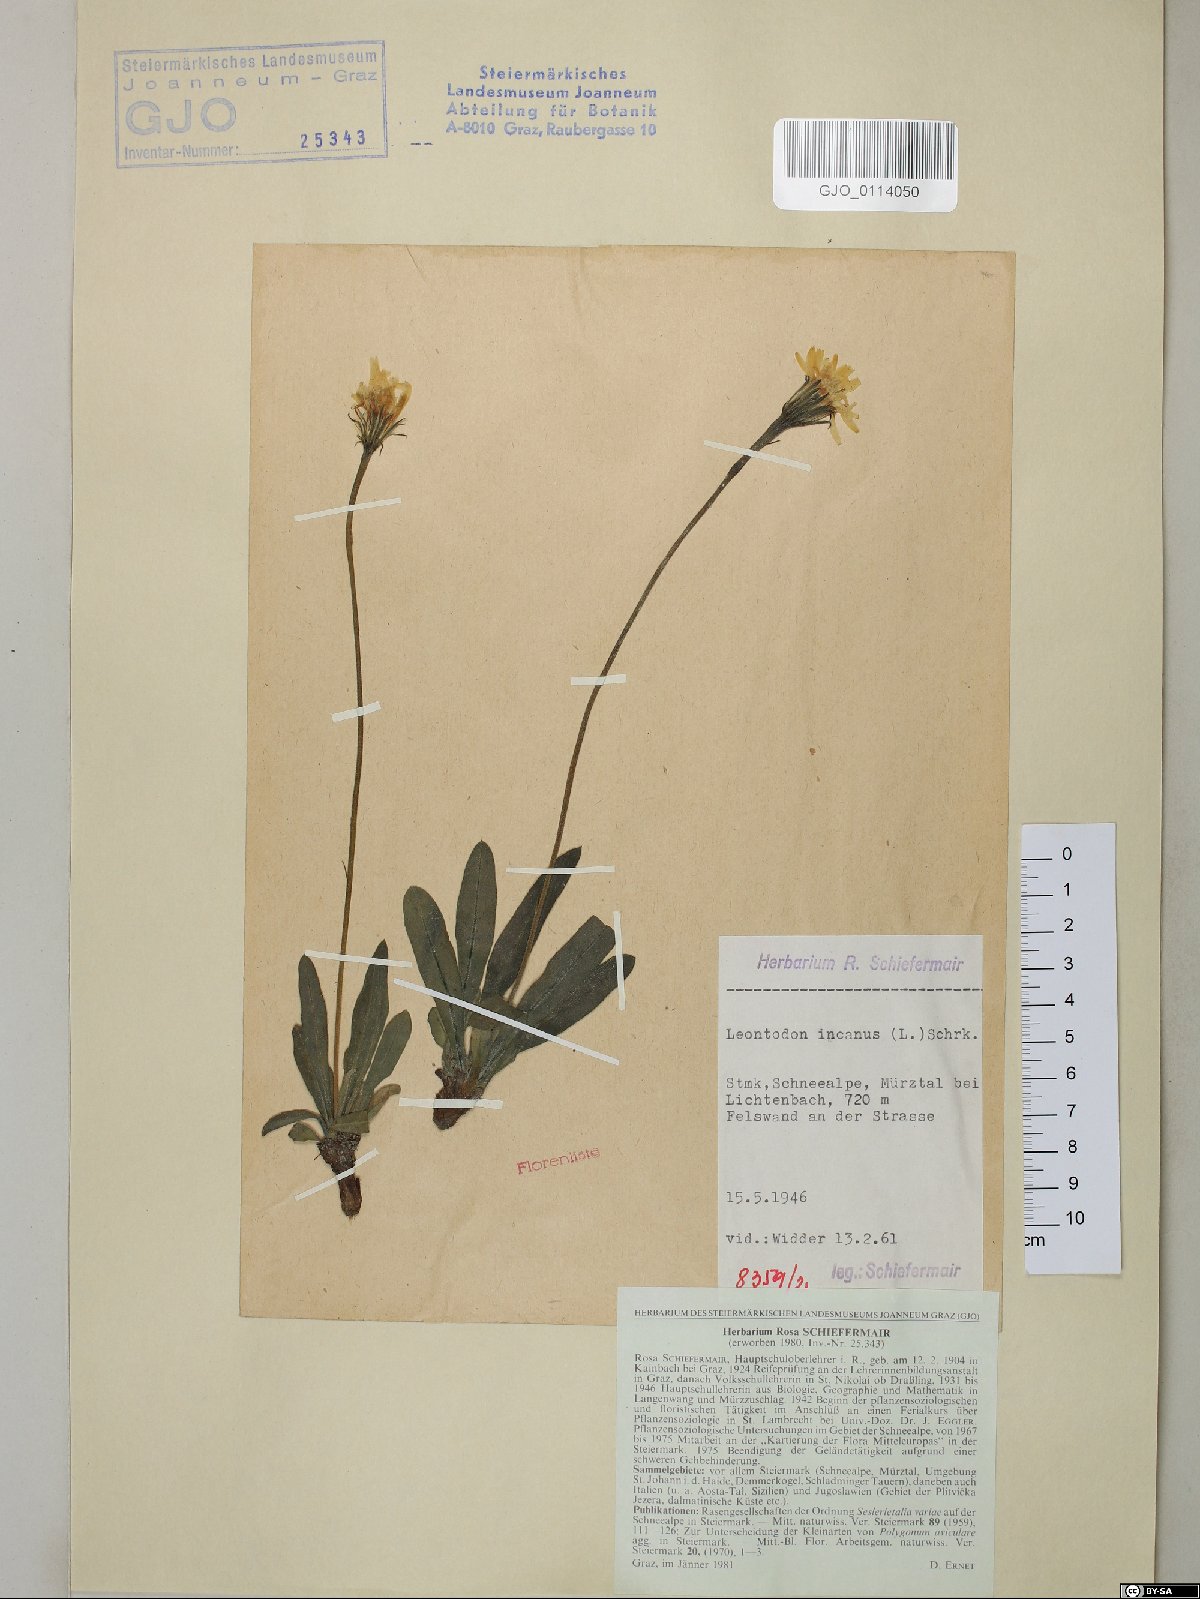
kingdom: Plantae
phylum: Tracheophyta
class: Magnoliopsida
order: Asterales
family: Asteraceae
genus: Leontodon
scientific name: Leontodon incanus
